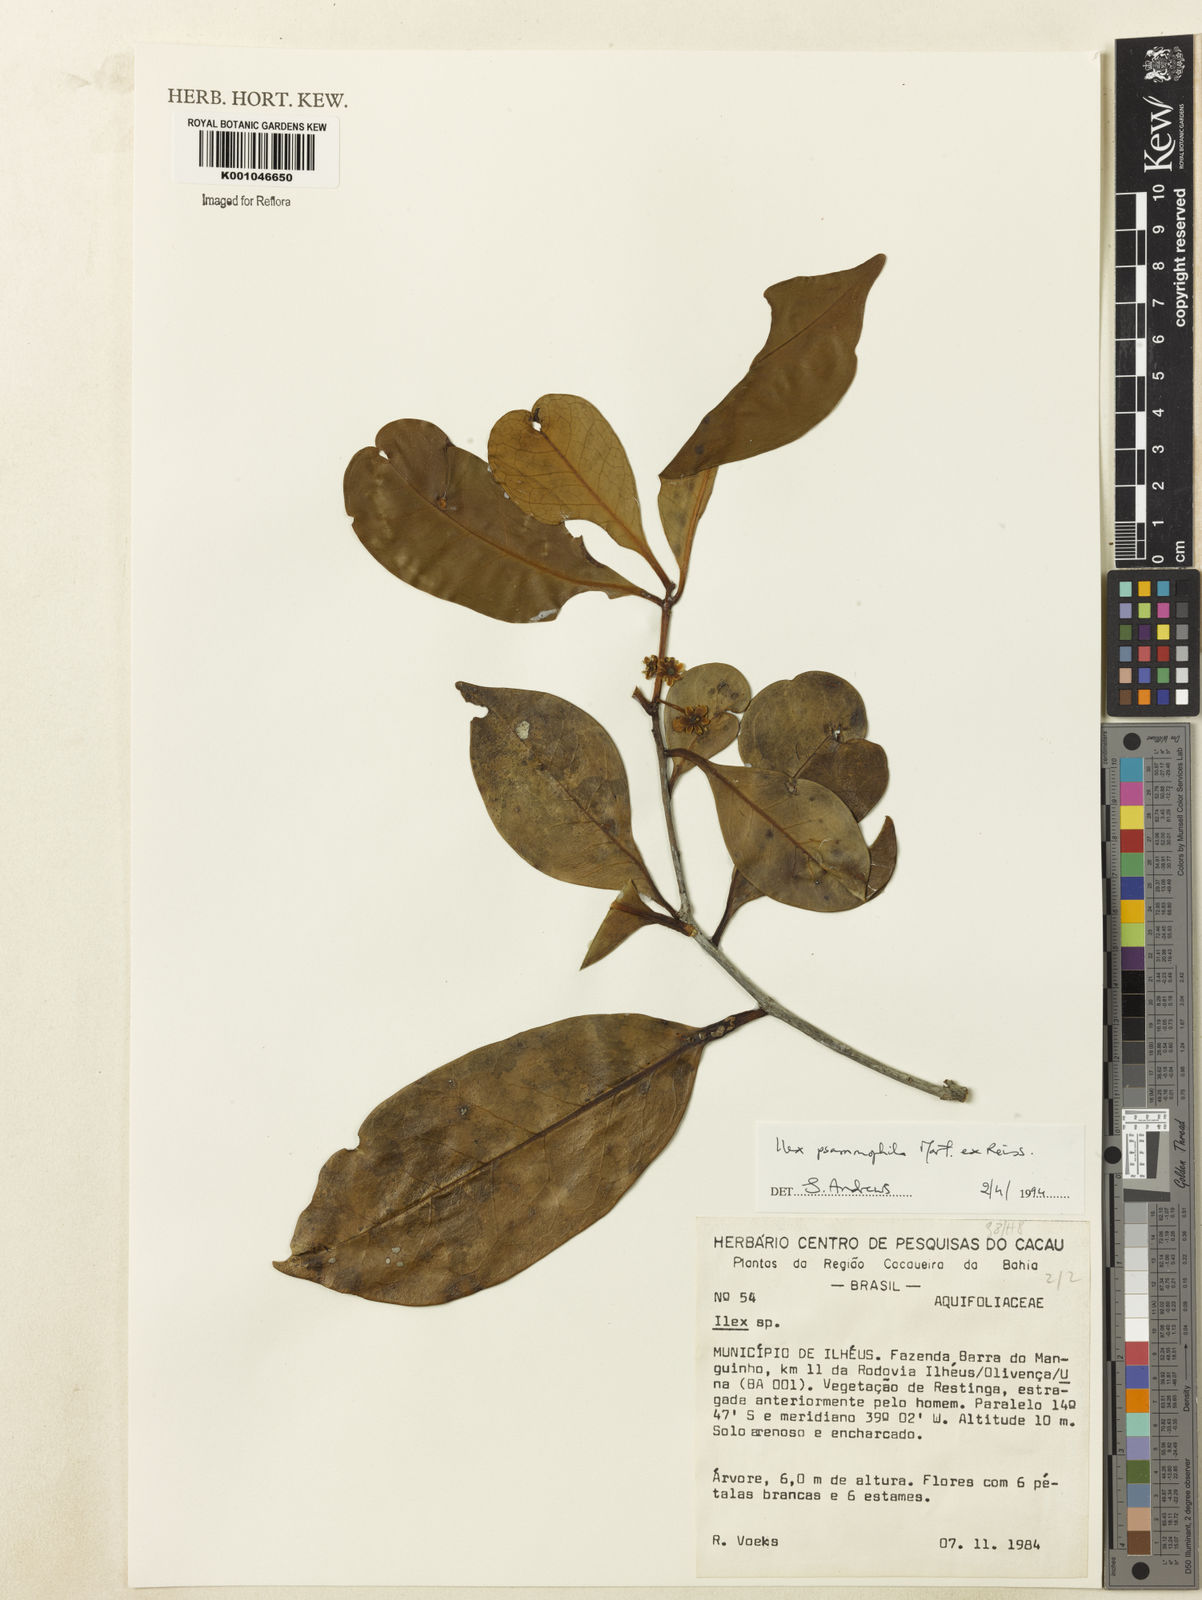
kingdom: Plantae
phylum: Tracheophyta
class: Magnoliopsida
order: Aquifoliales
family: Aquifoliaceae
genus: Ilex
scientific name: Ilex psammophila
